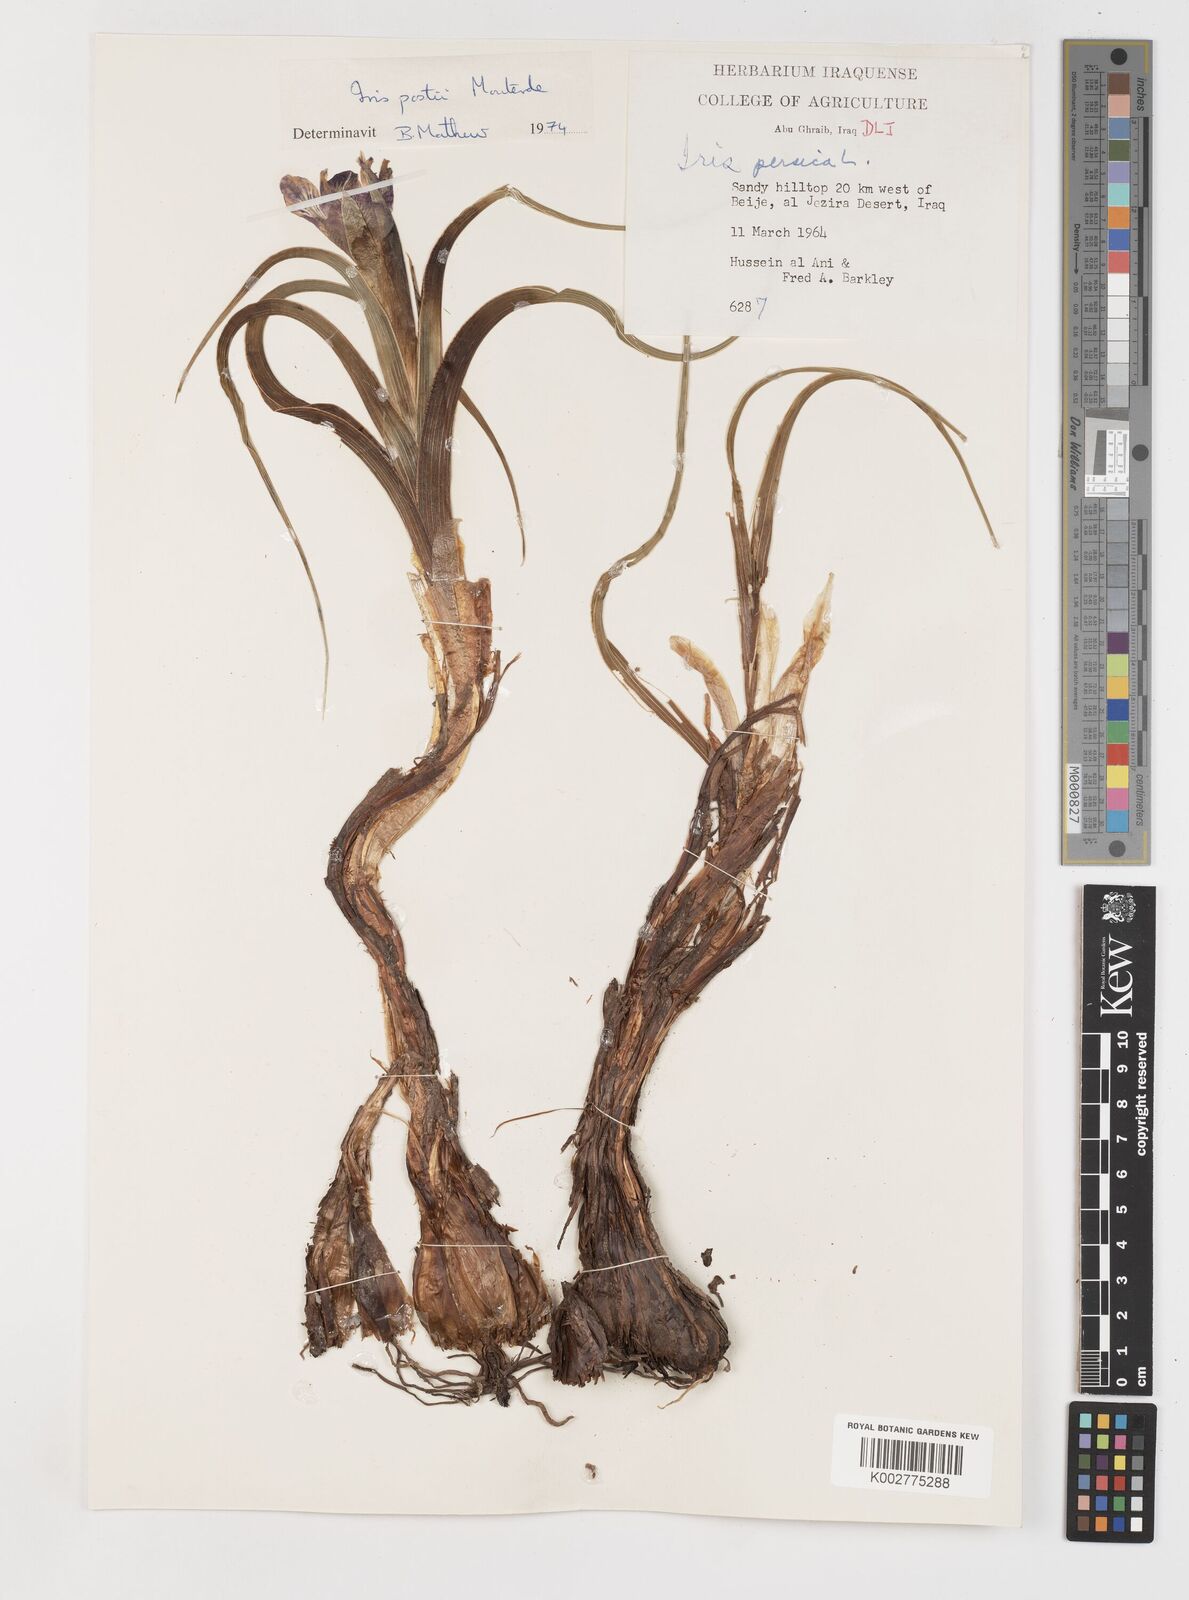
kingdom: Plantae
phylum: Tracheophyta
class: Liliopsida
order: Asparagales
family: Iridaceae
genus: Iris
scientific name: Iris postii
